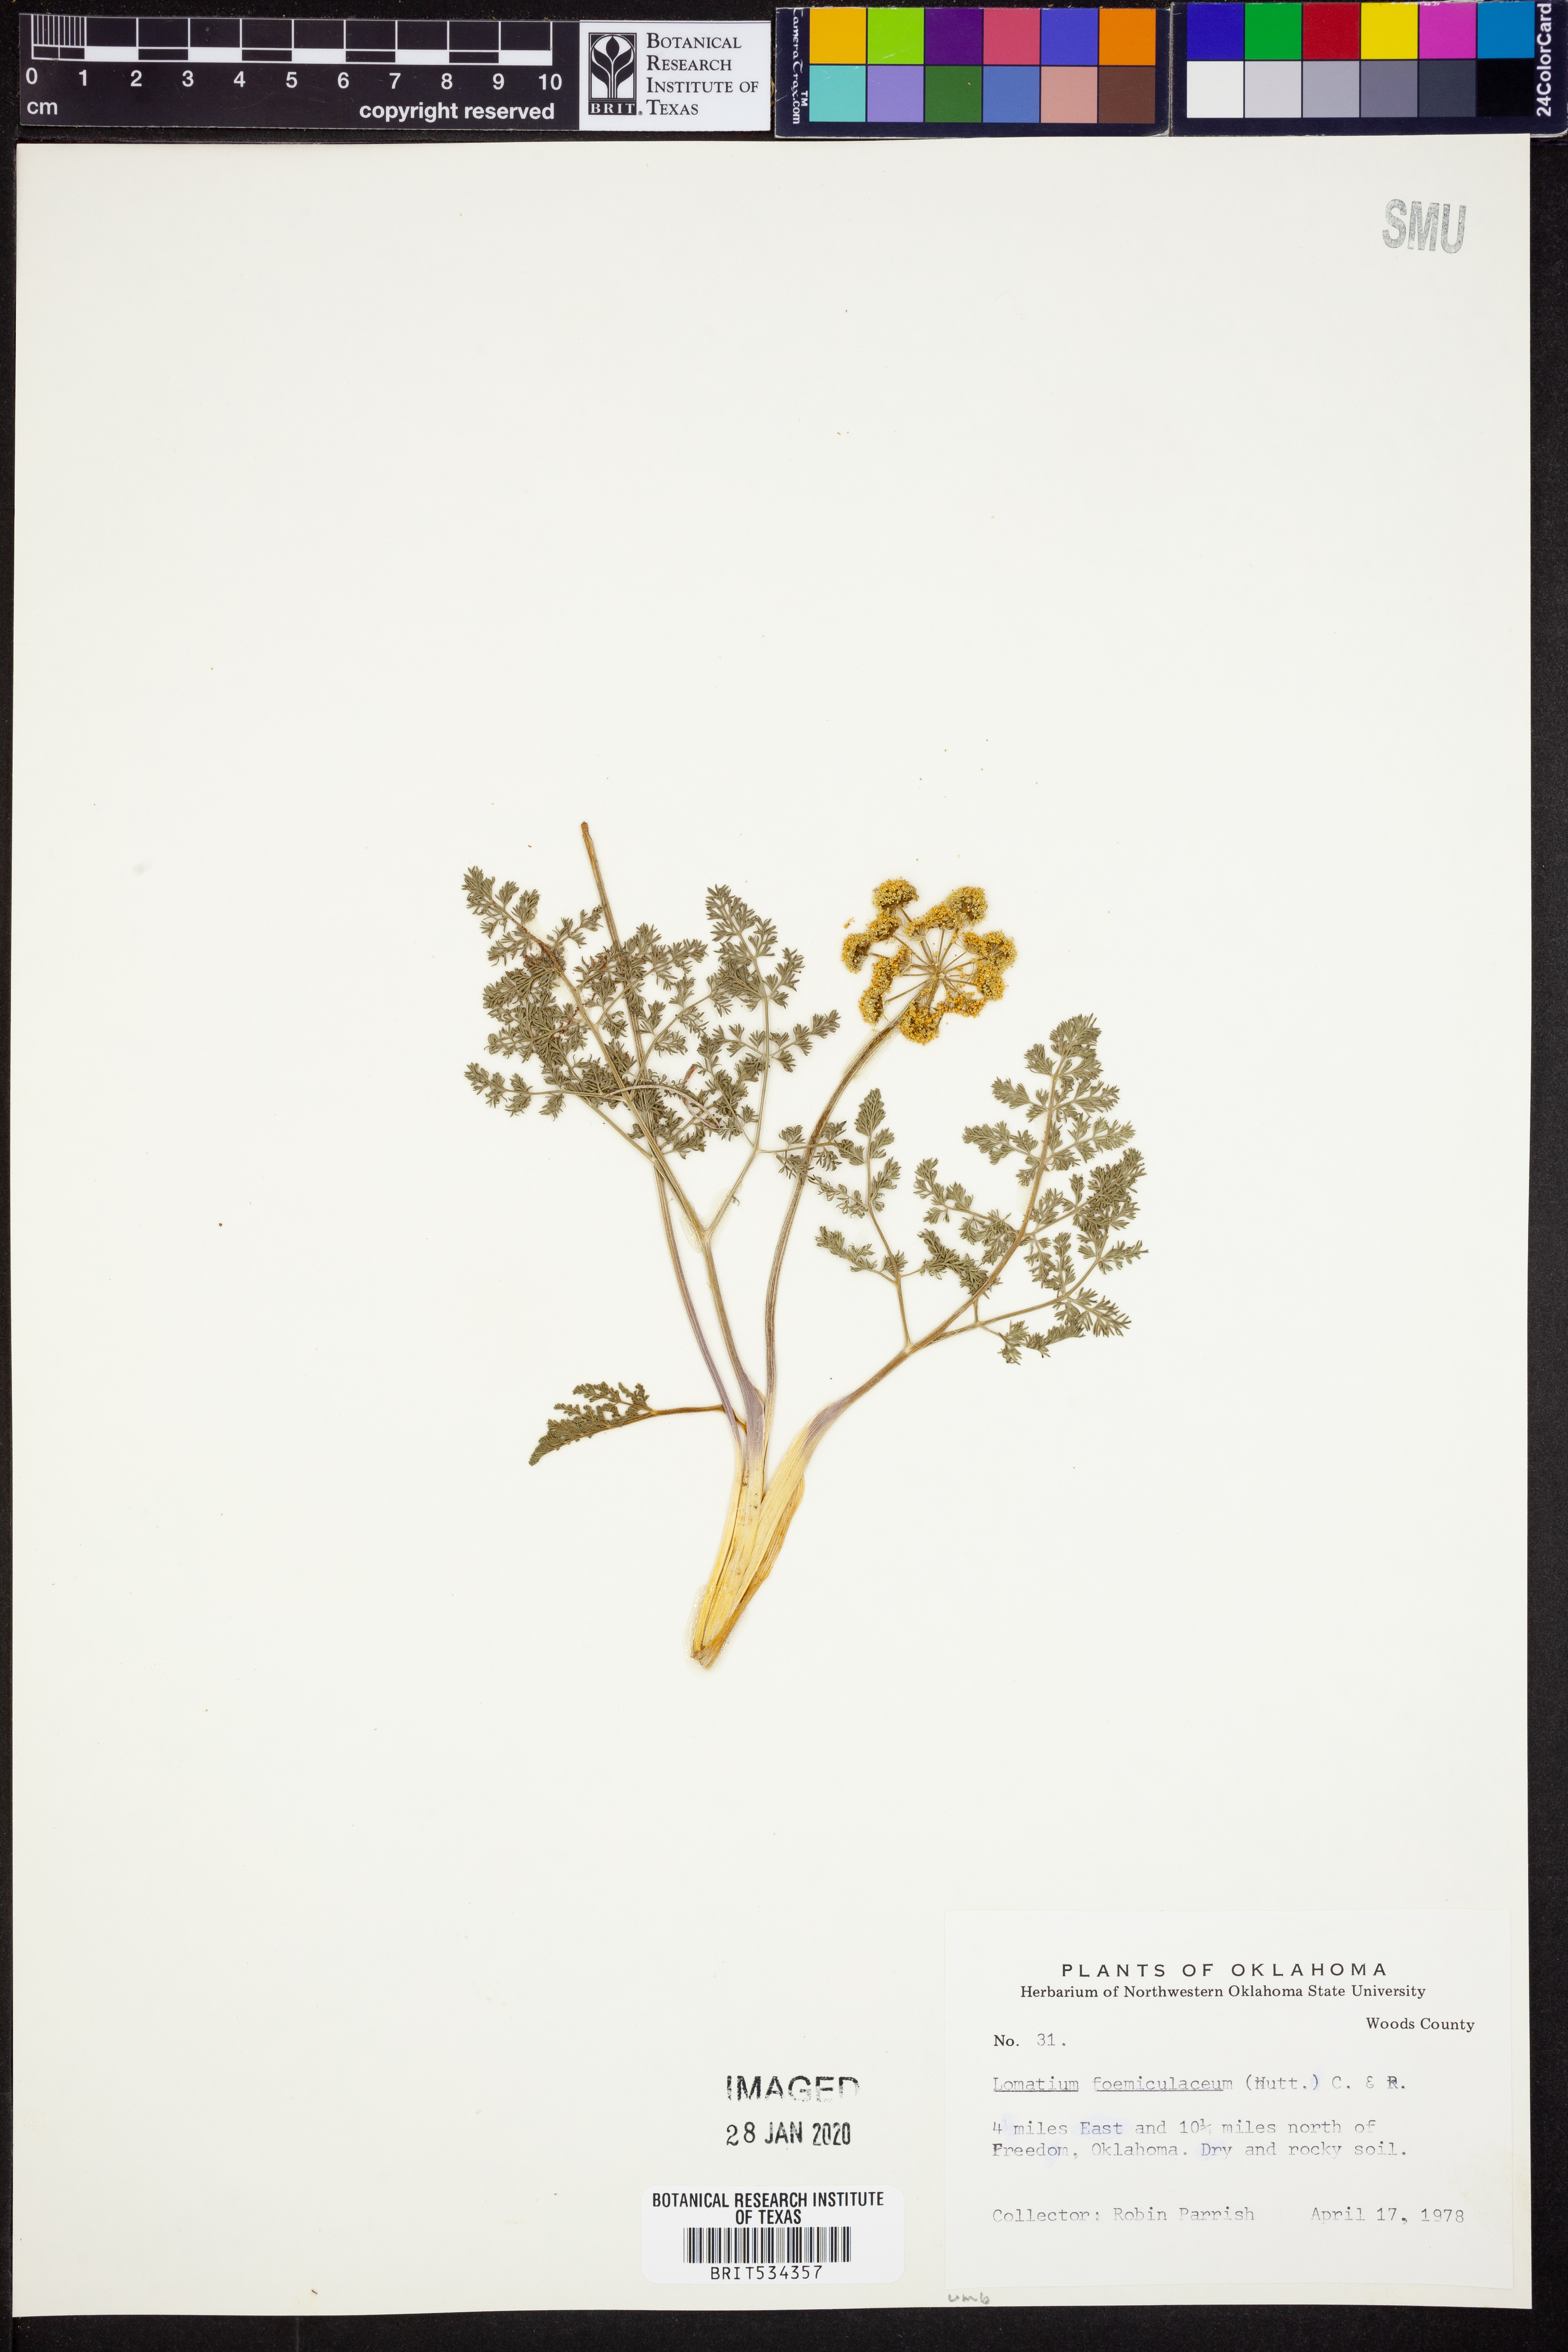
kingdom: Plantae
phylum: Tracheophyta
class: Magnoliopsida
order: Apiales
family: Apiaceae
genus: Lomatium
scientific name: Lomatium foeniculaceum
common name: Desert-parsley
